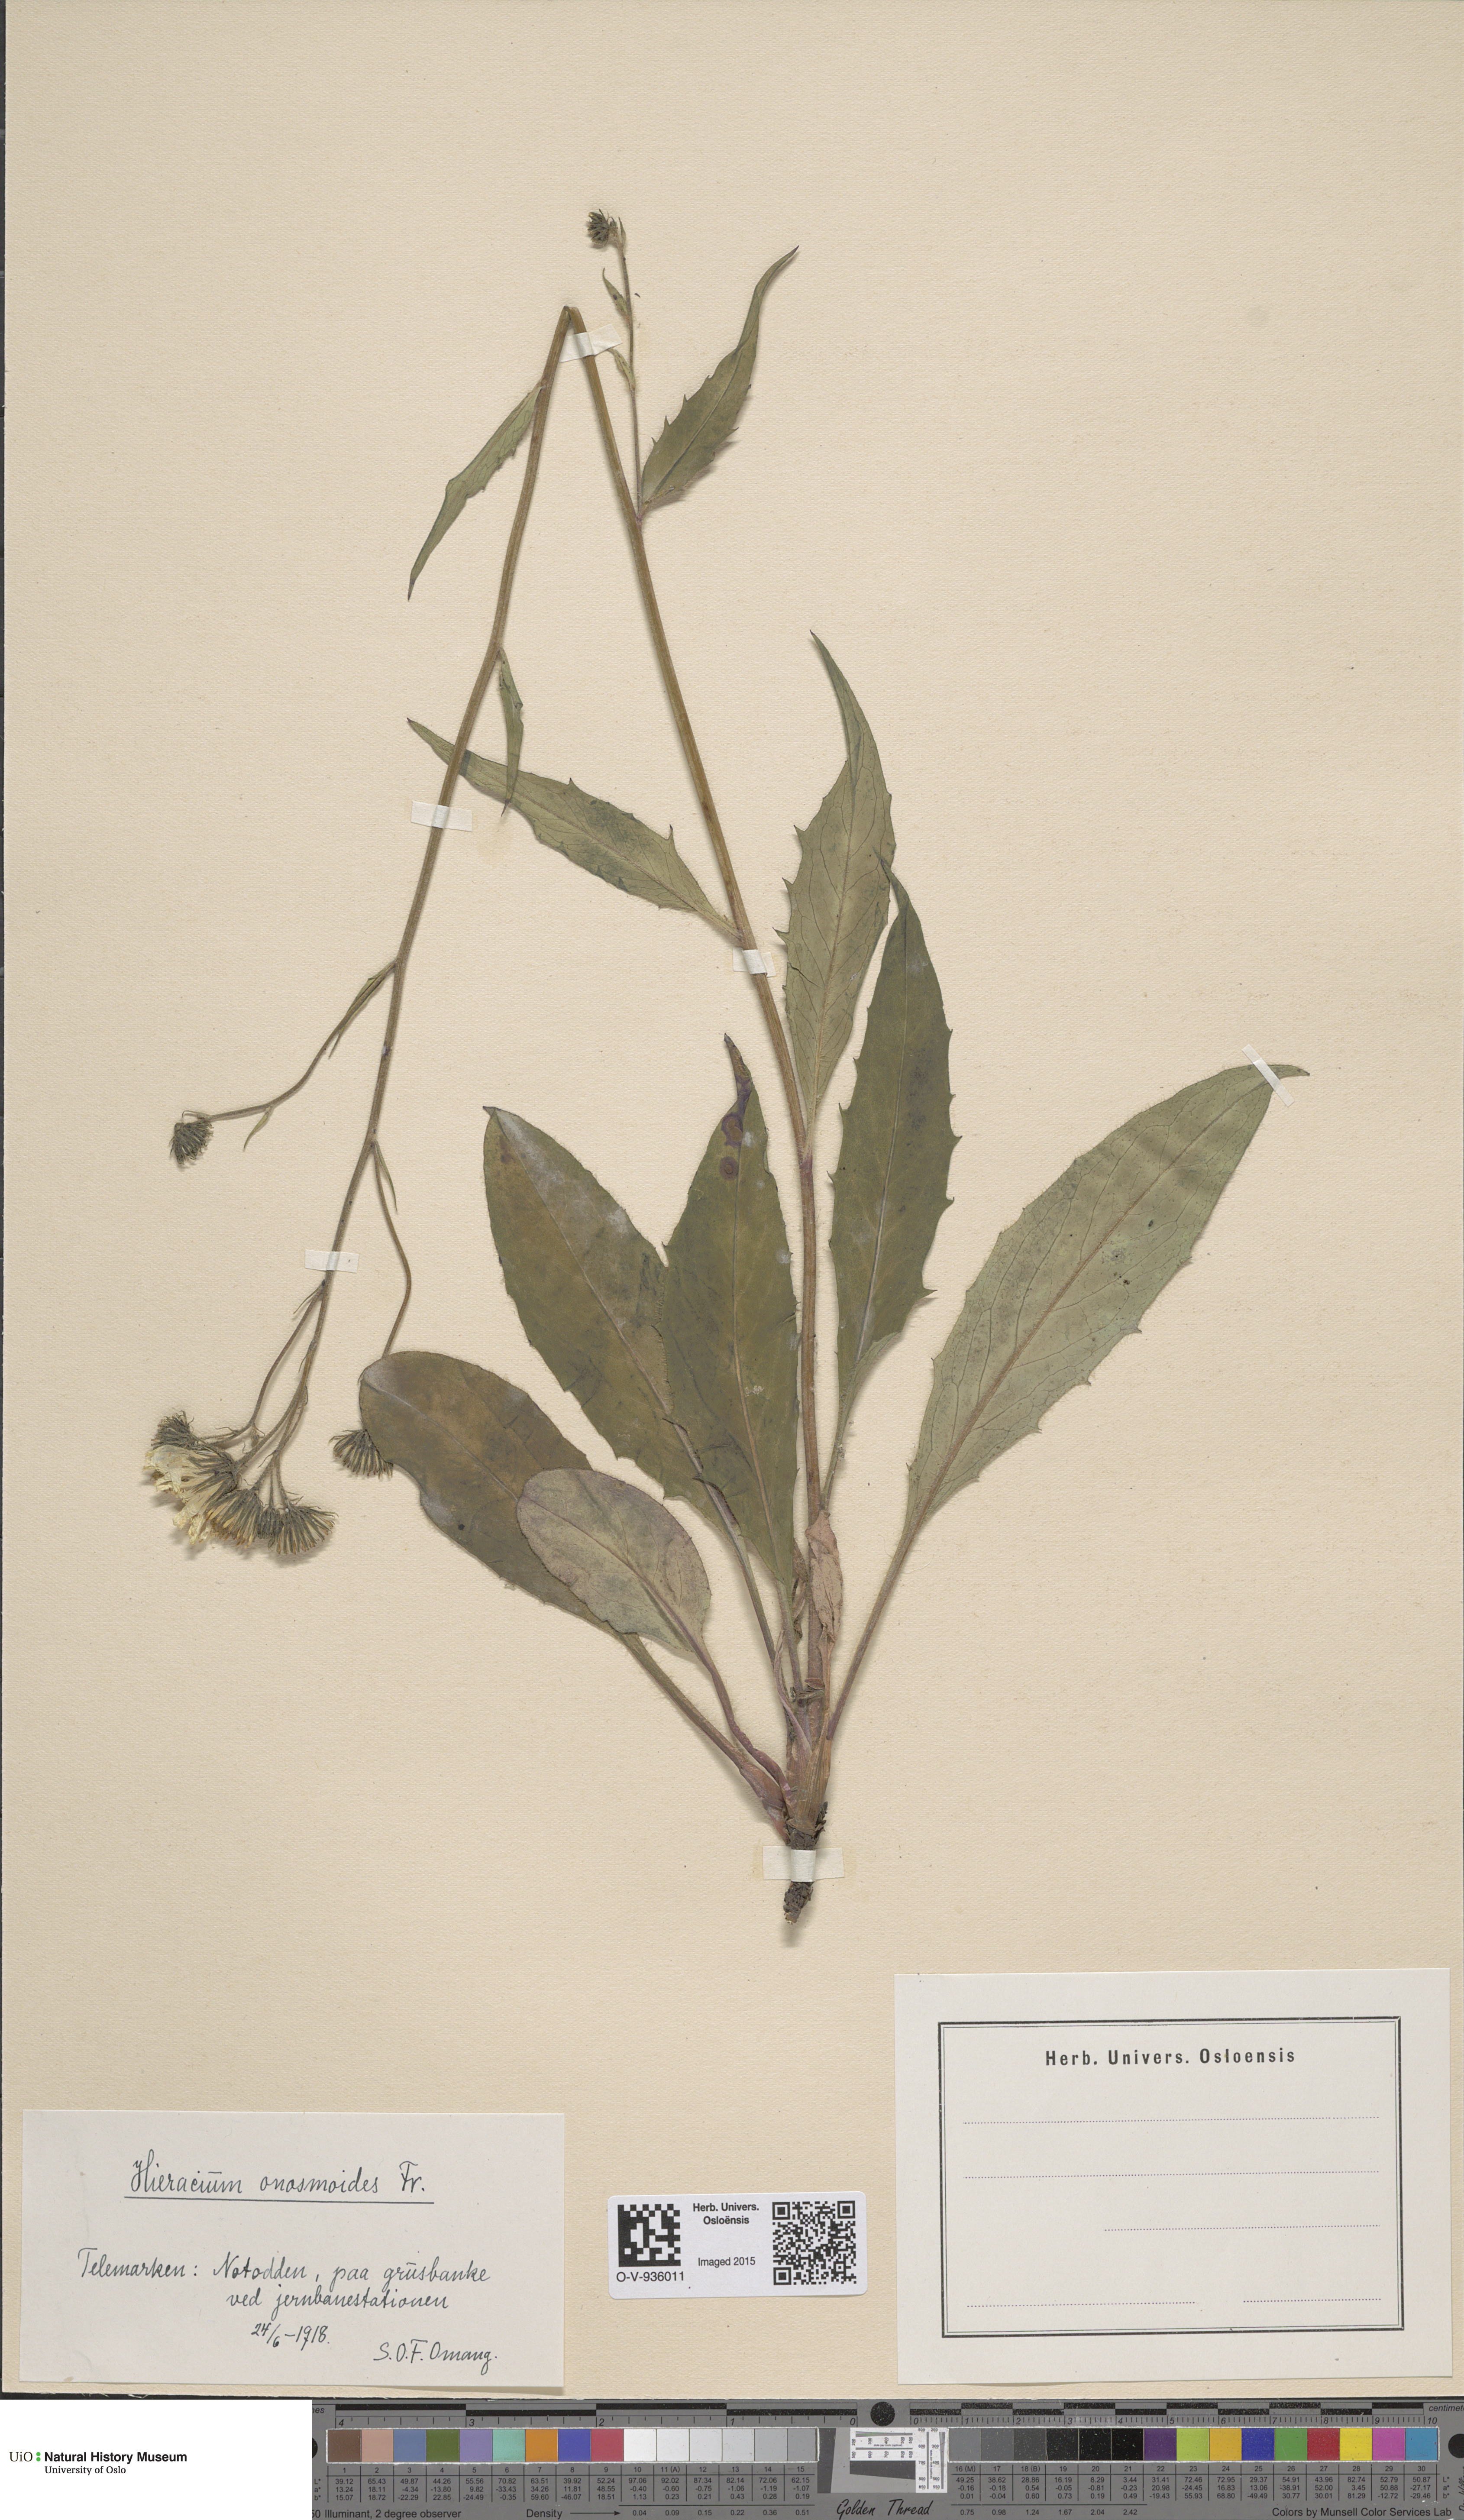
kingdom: Plantae
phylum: Tracheophyta
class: Magnoliopsida
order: Asterales
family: Asteraceae
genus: Hieracium
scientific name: Hieracium onosmoides
